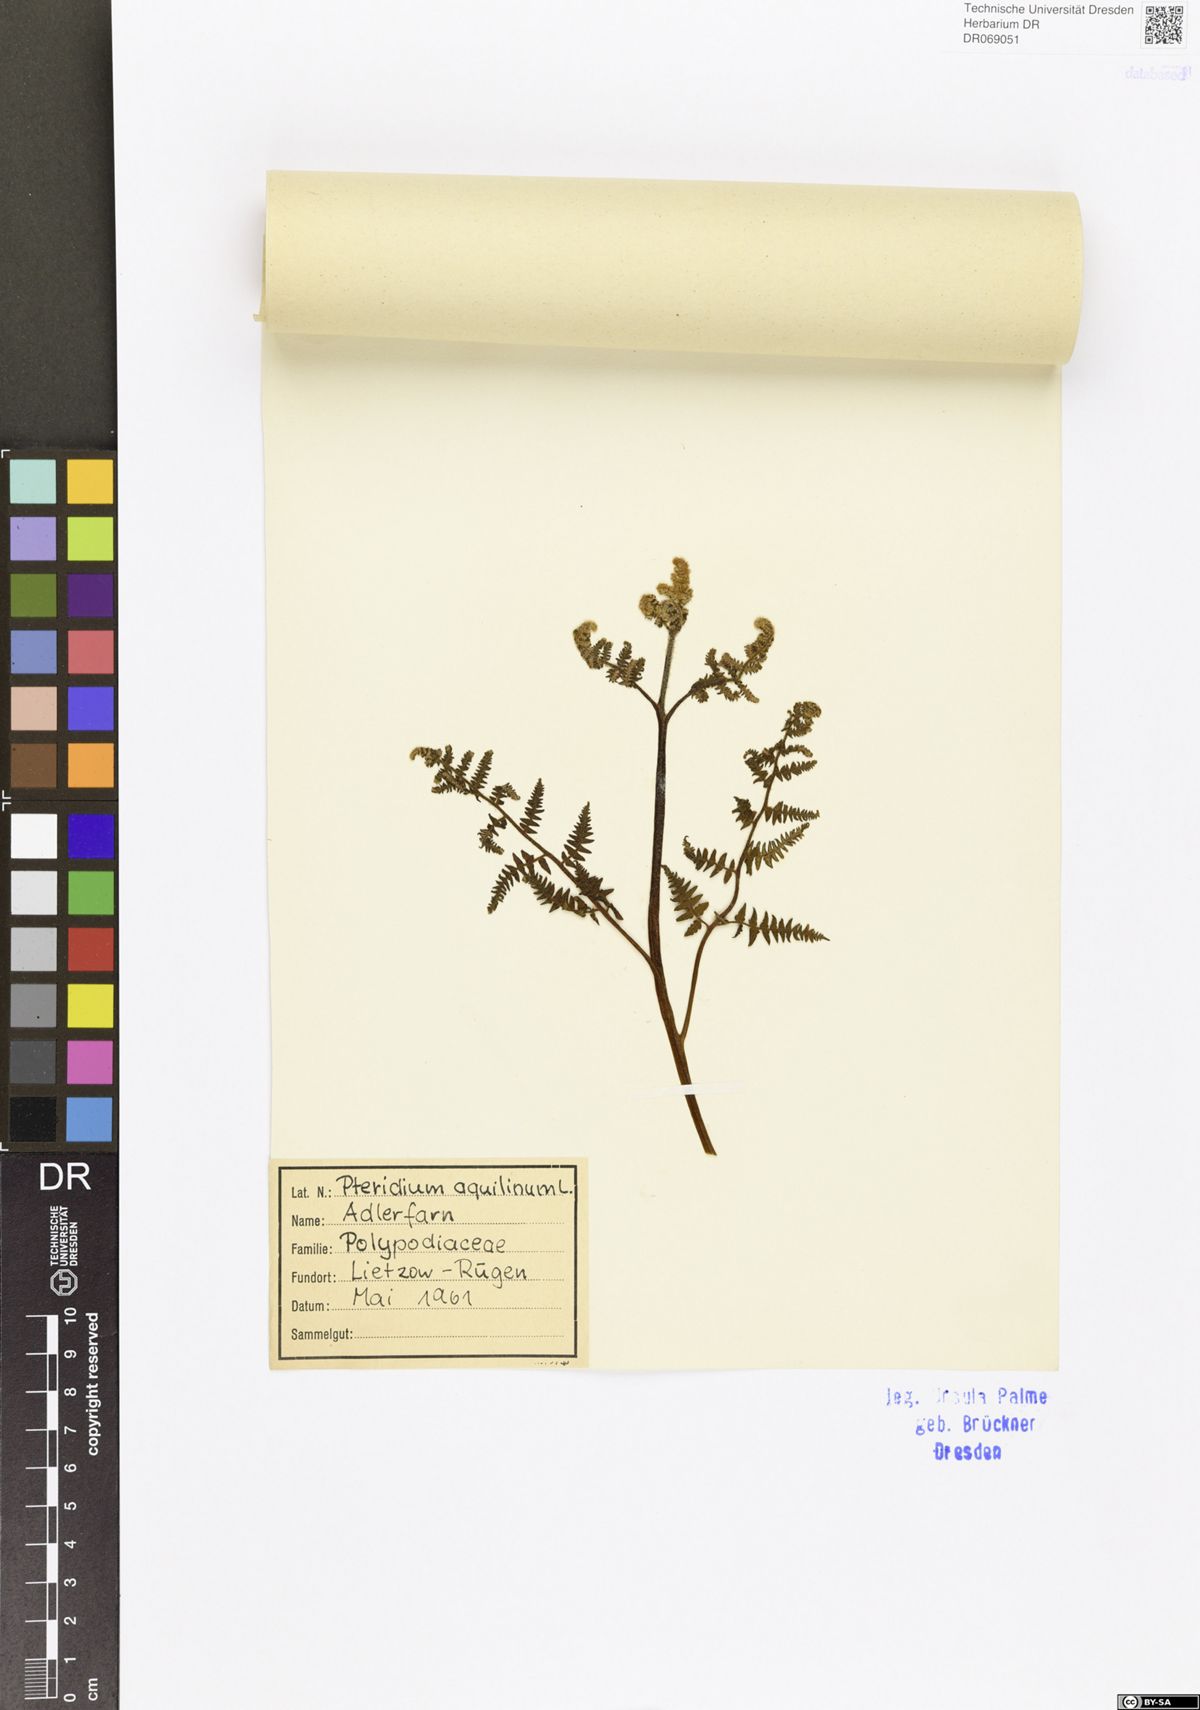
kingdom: Plantae
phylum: Tracheophyta
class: Polypodiopsida
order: Polypodiales
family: Dennstaedtiaceae
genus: Pteridium
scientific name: Pteridium aquilinum
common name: Bracken
